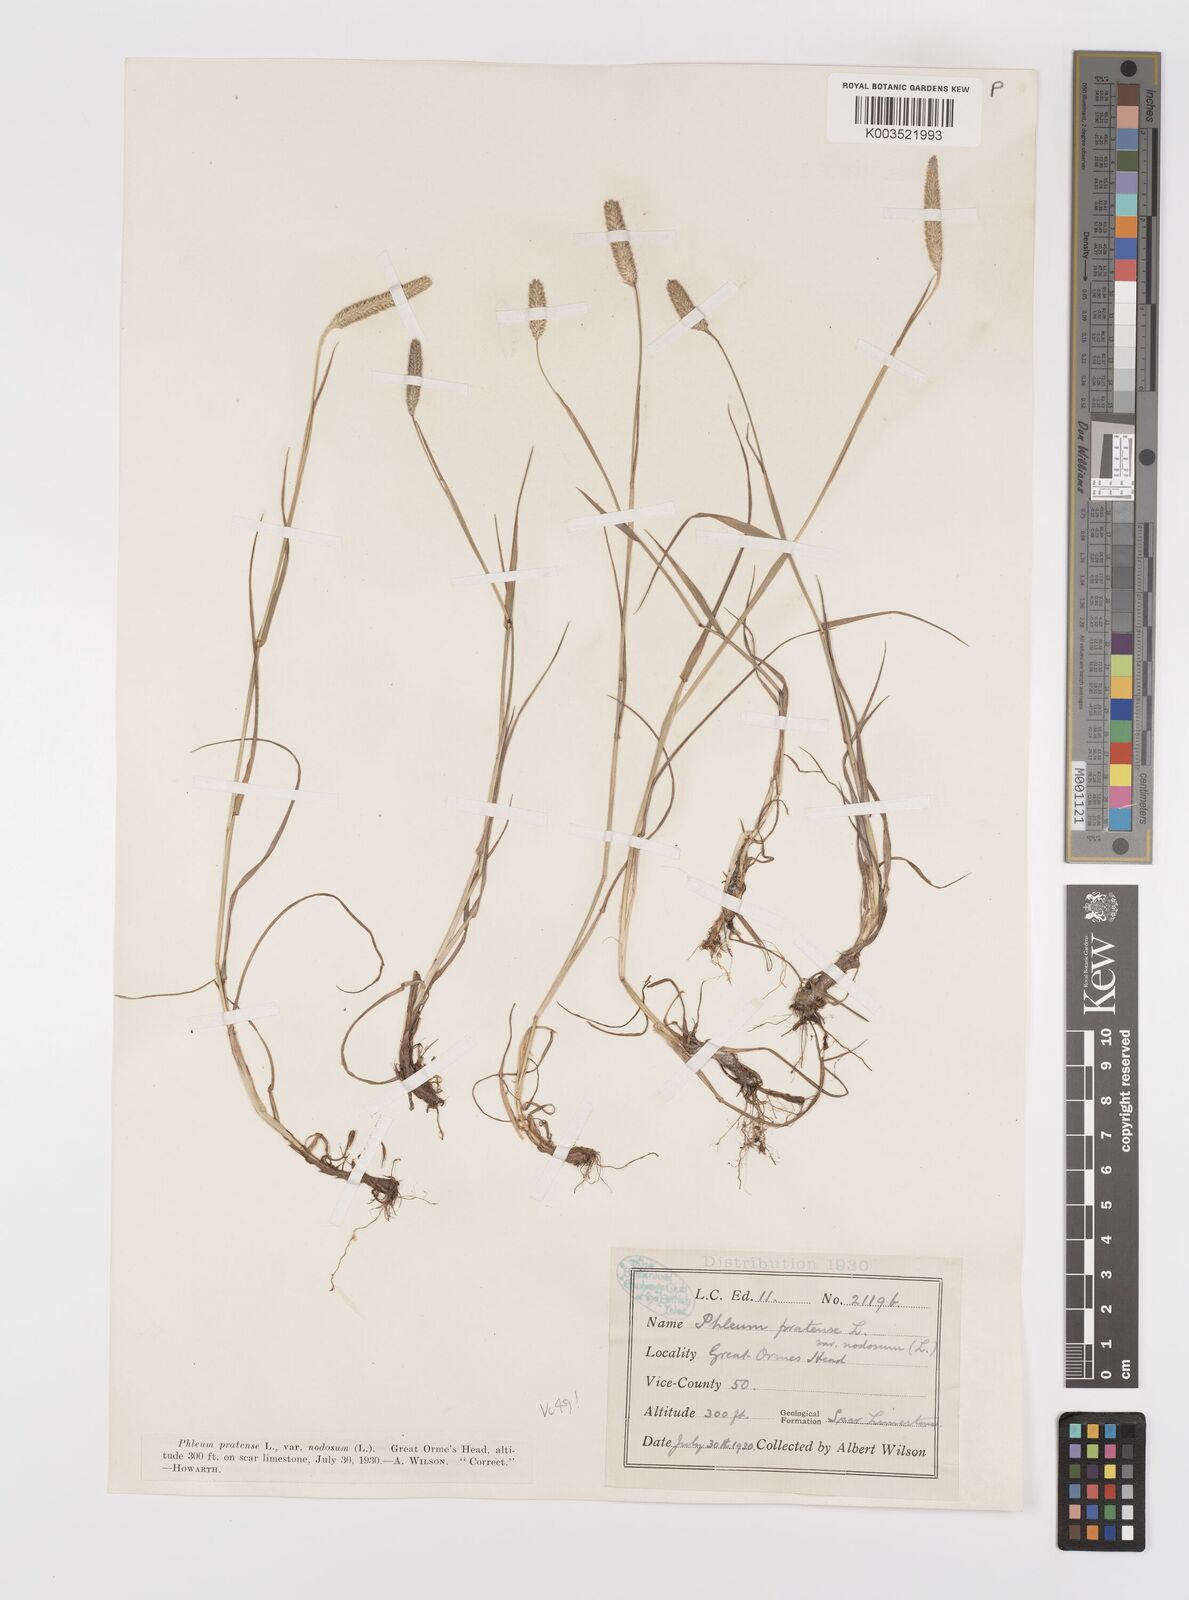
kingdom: Plantae
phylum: Tracheophyta
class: Liliopsida
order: Poales
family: Poaceae
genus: Phleum
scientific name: Phleum bertolonii
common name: Smaller cat's-tail
